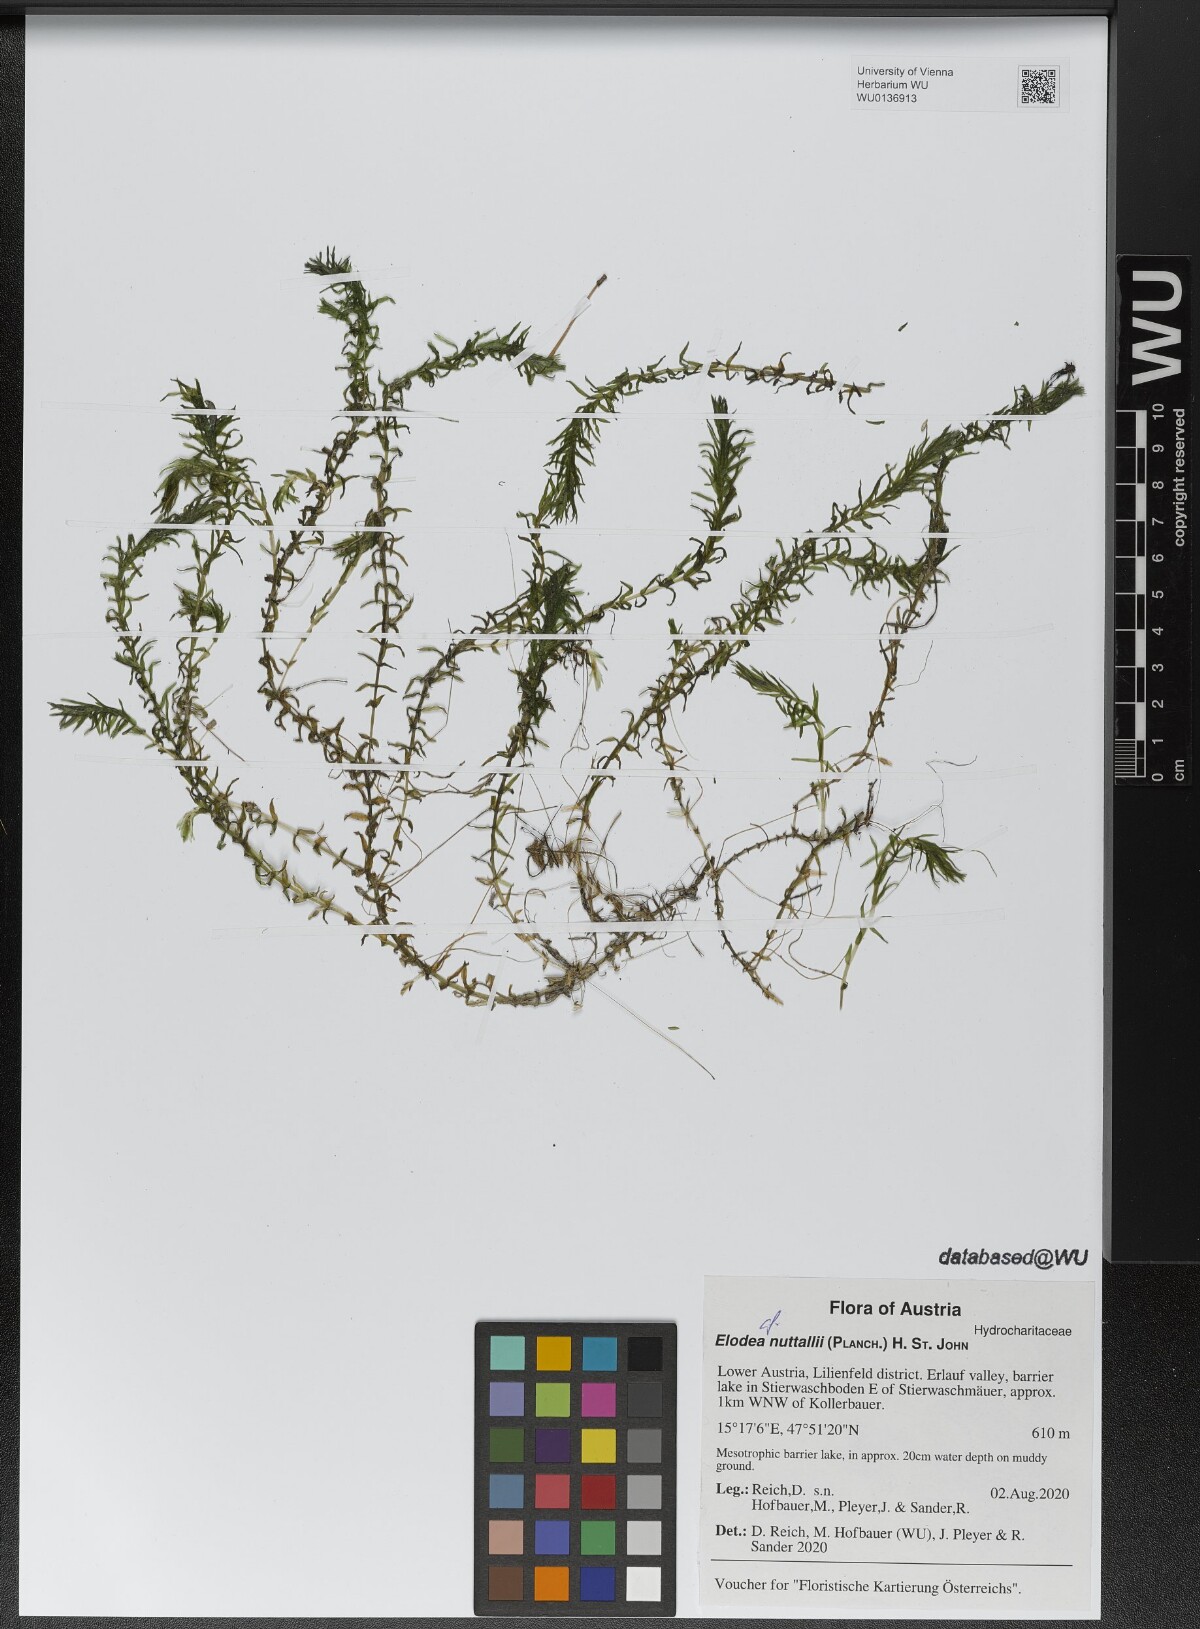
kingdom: Plantae
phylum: Tracheophyta
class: Liliopsida
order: Alismatales
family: Hydrocharitaceae
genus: Elodea
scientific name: Elodea nuttallii
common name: Nuttall's waterweed
